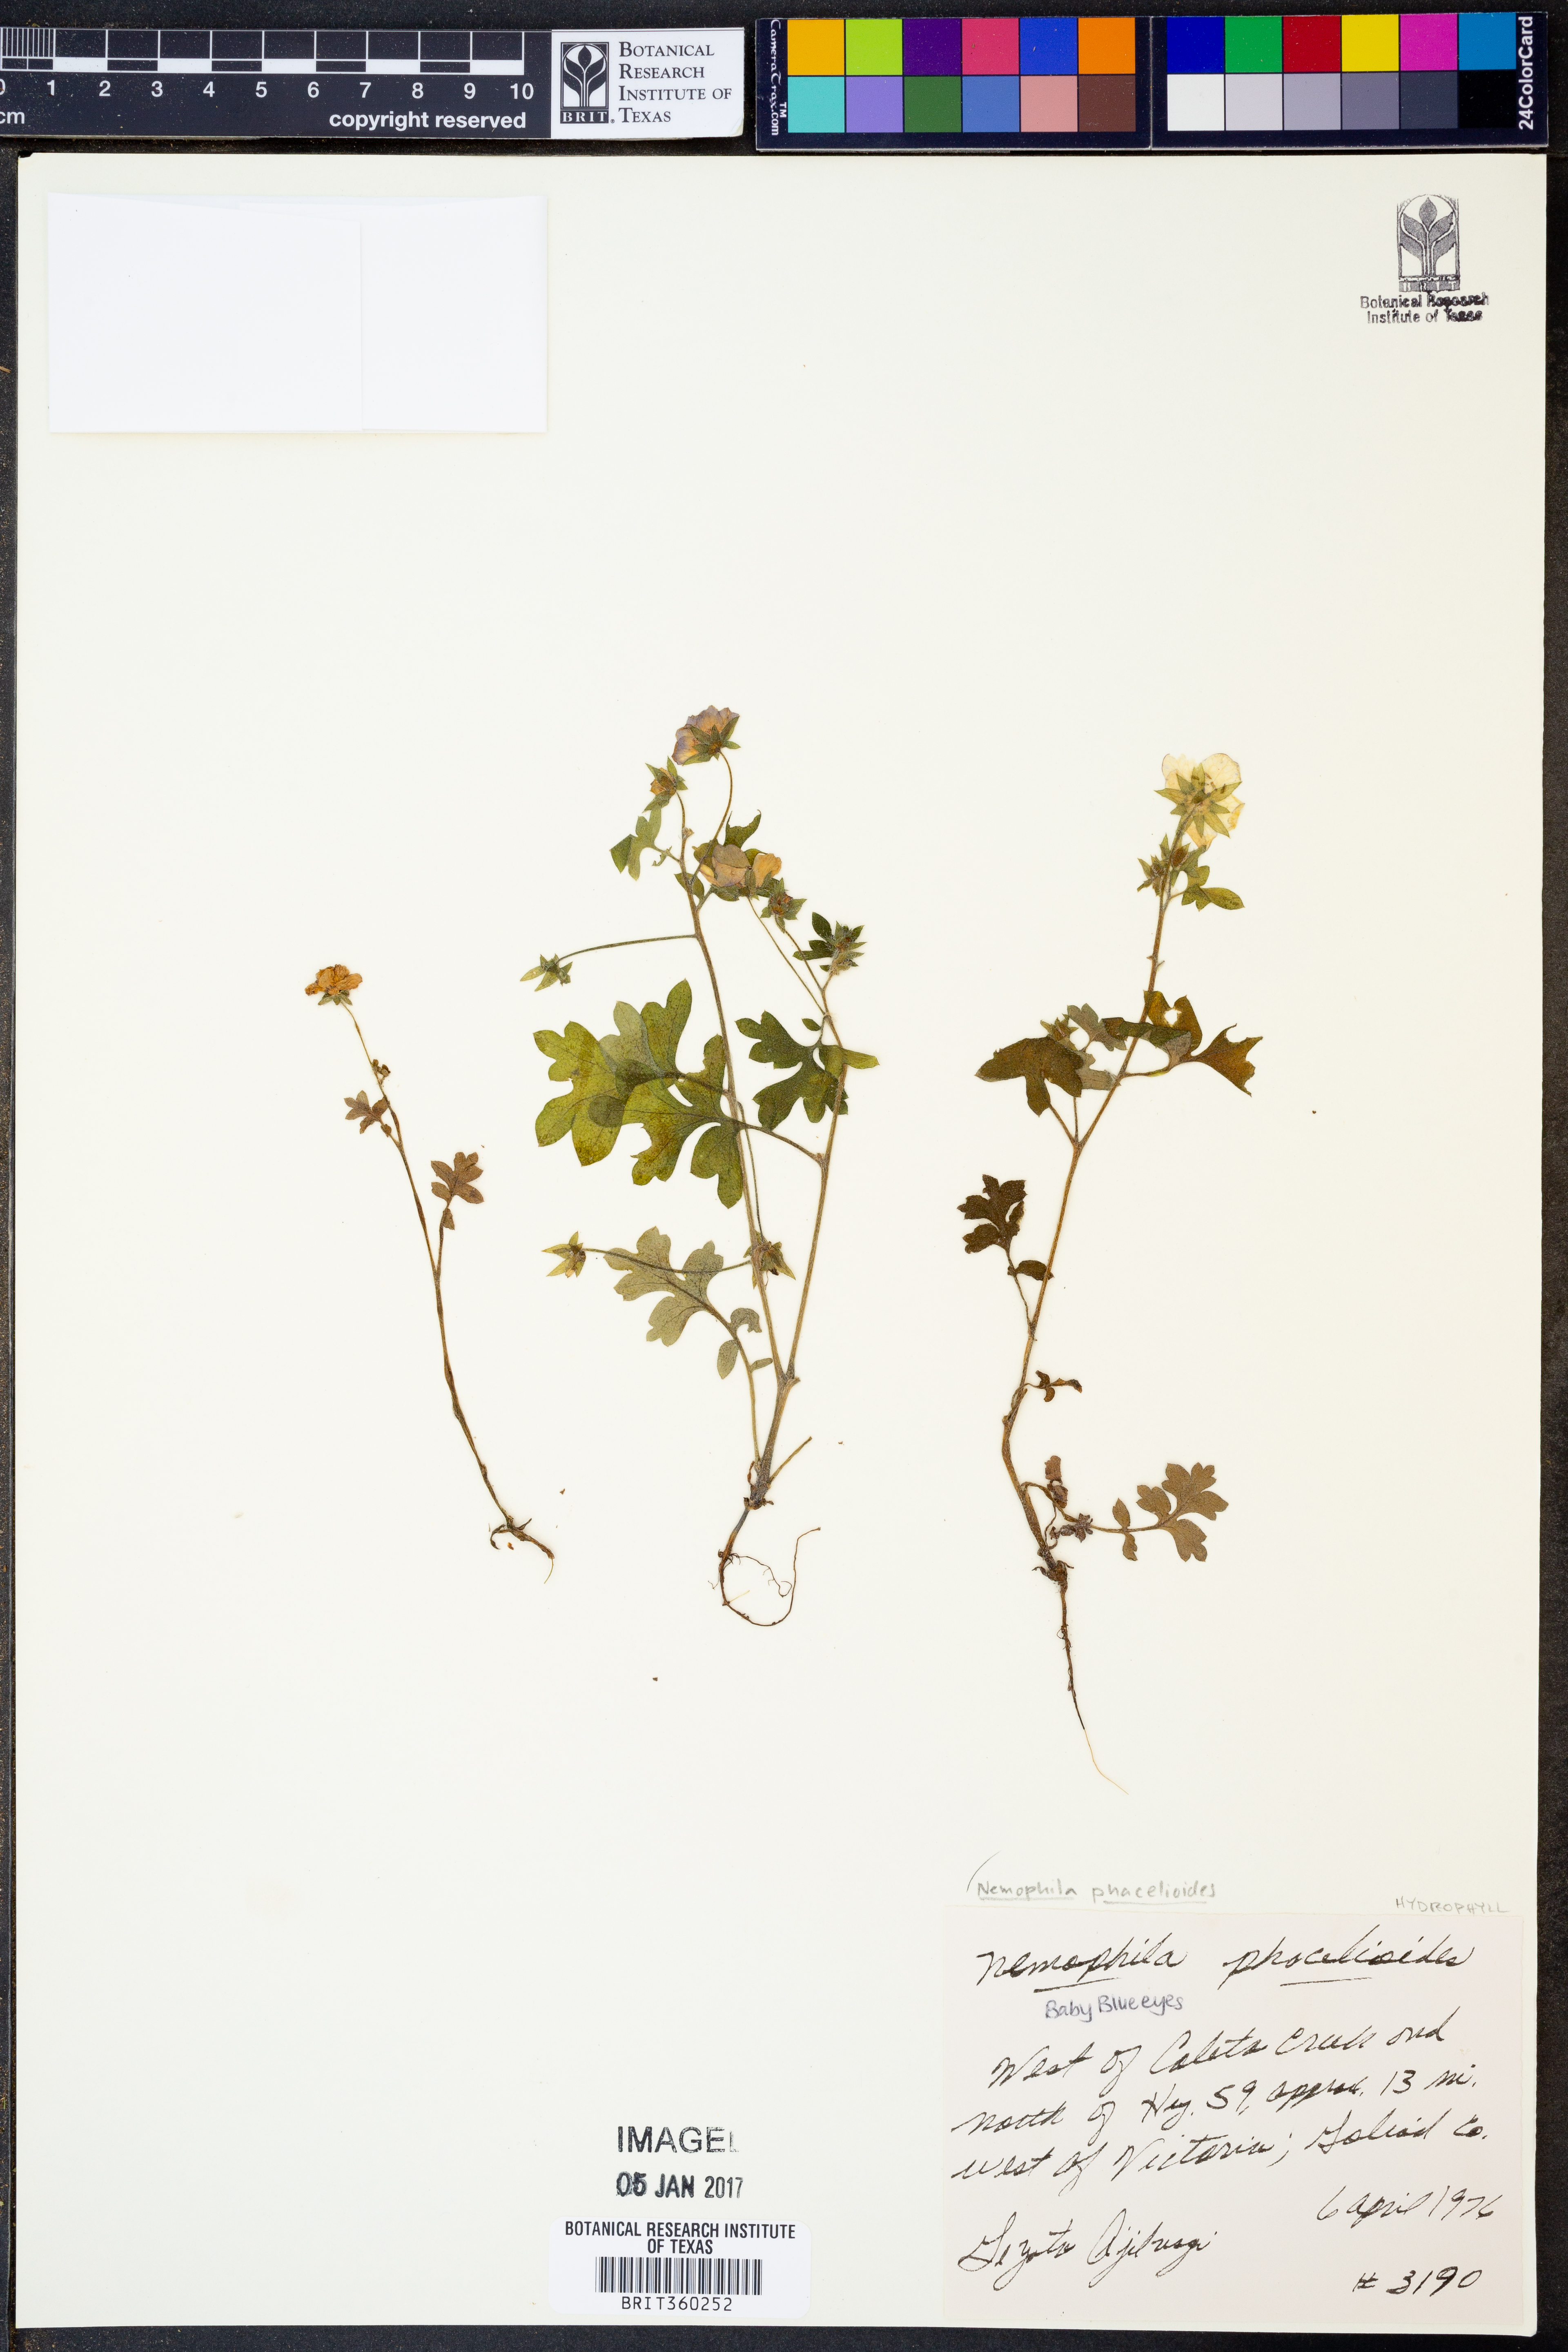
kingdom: Plantae
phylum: Tracheophyta
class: Magnoliopsida
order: Boraginales
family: Hydrophyllaceae
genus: Nemophila
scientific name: Nemophila phacelioides
